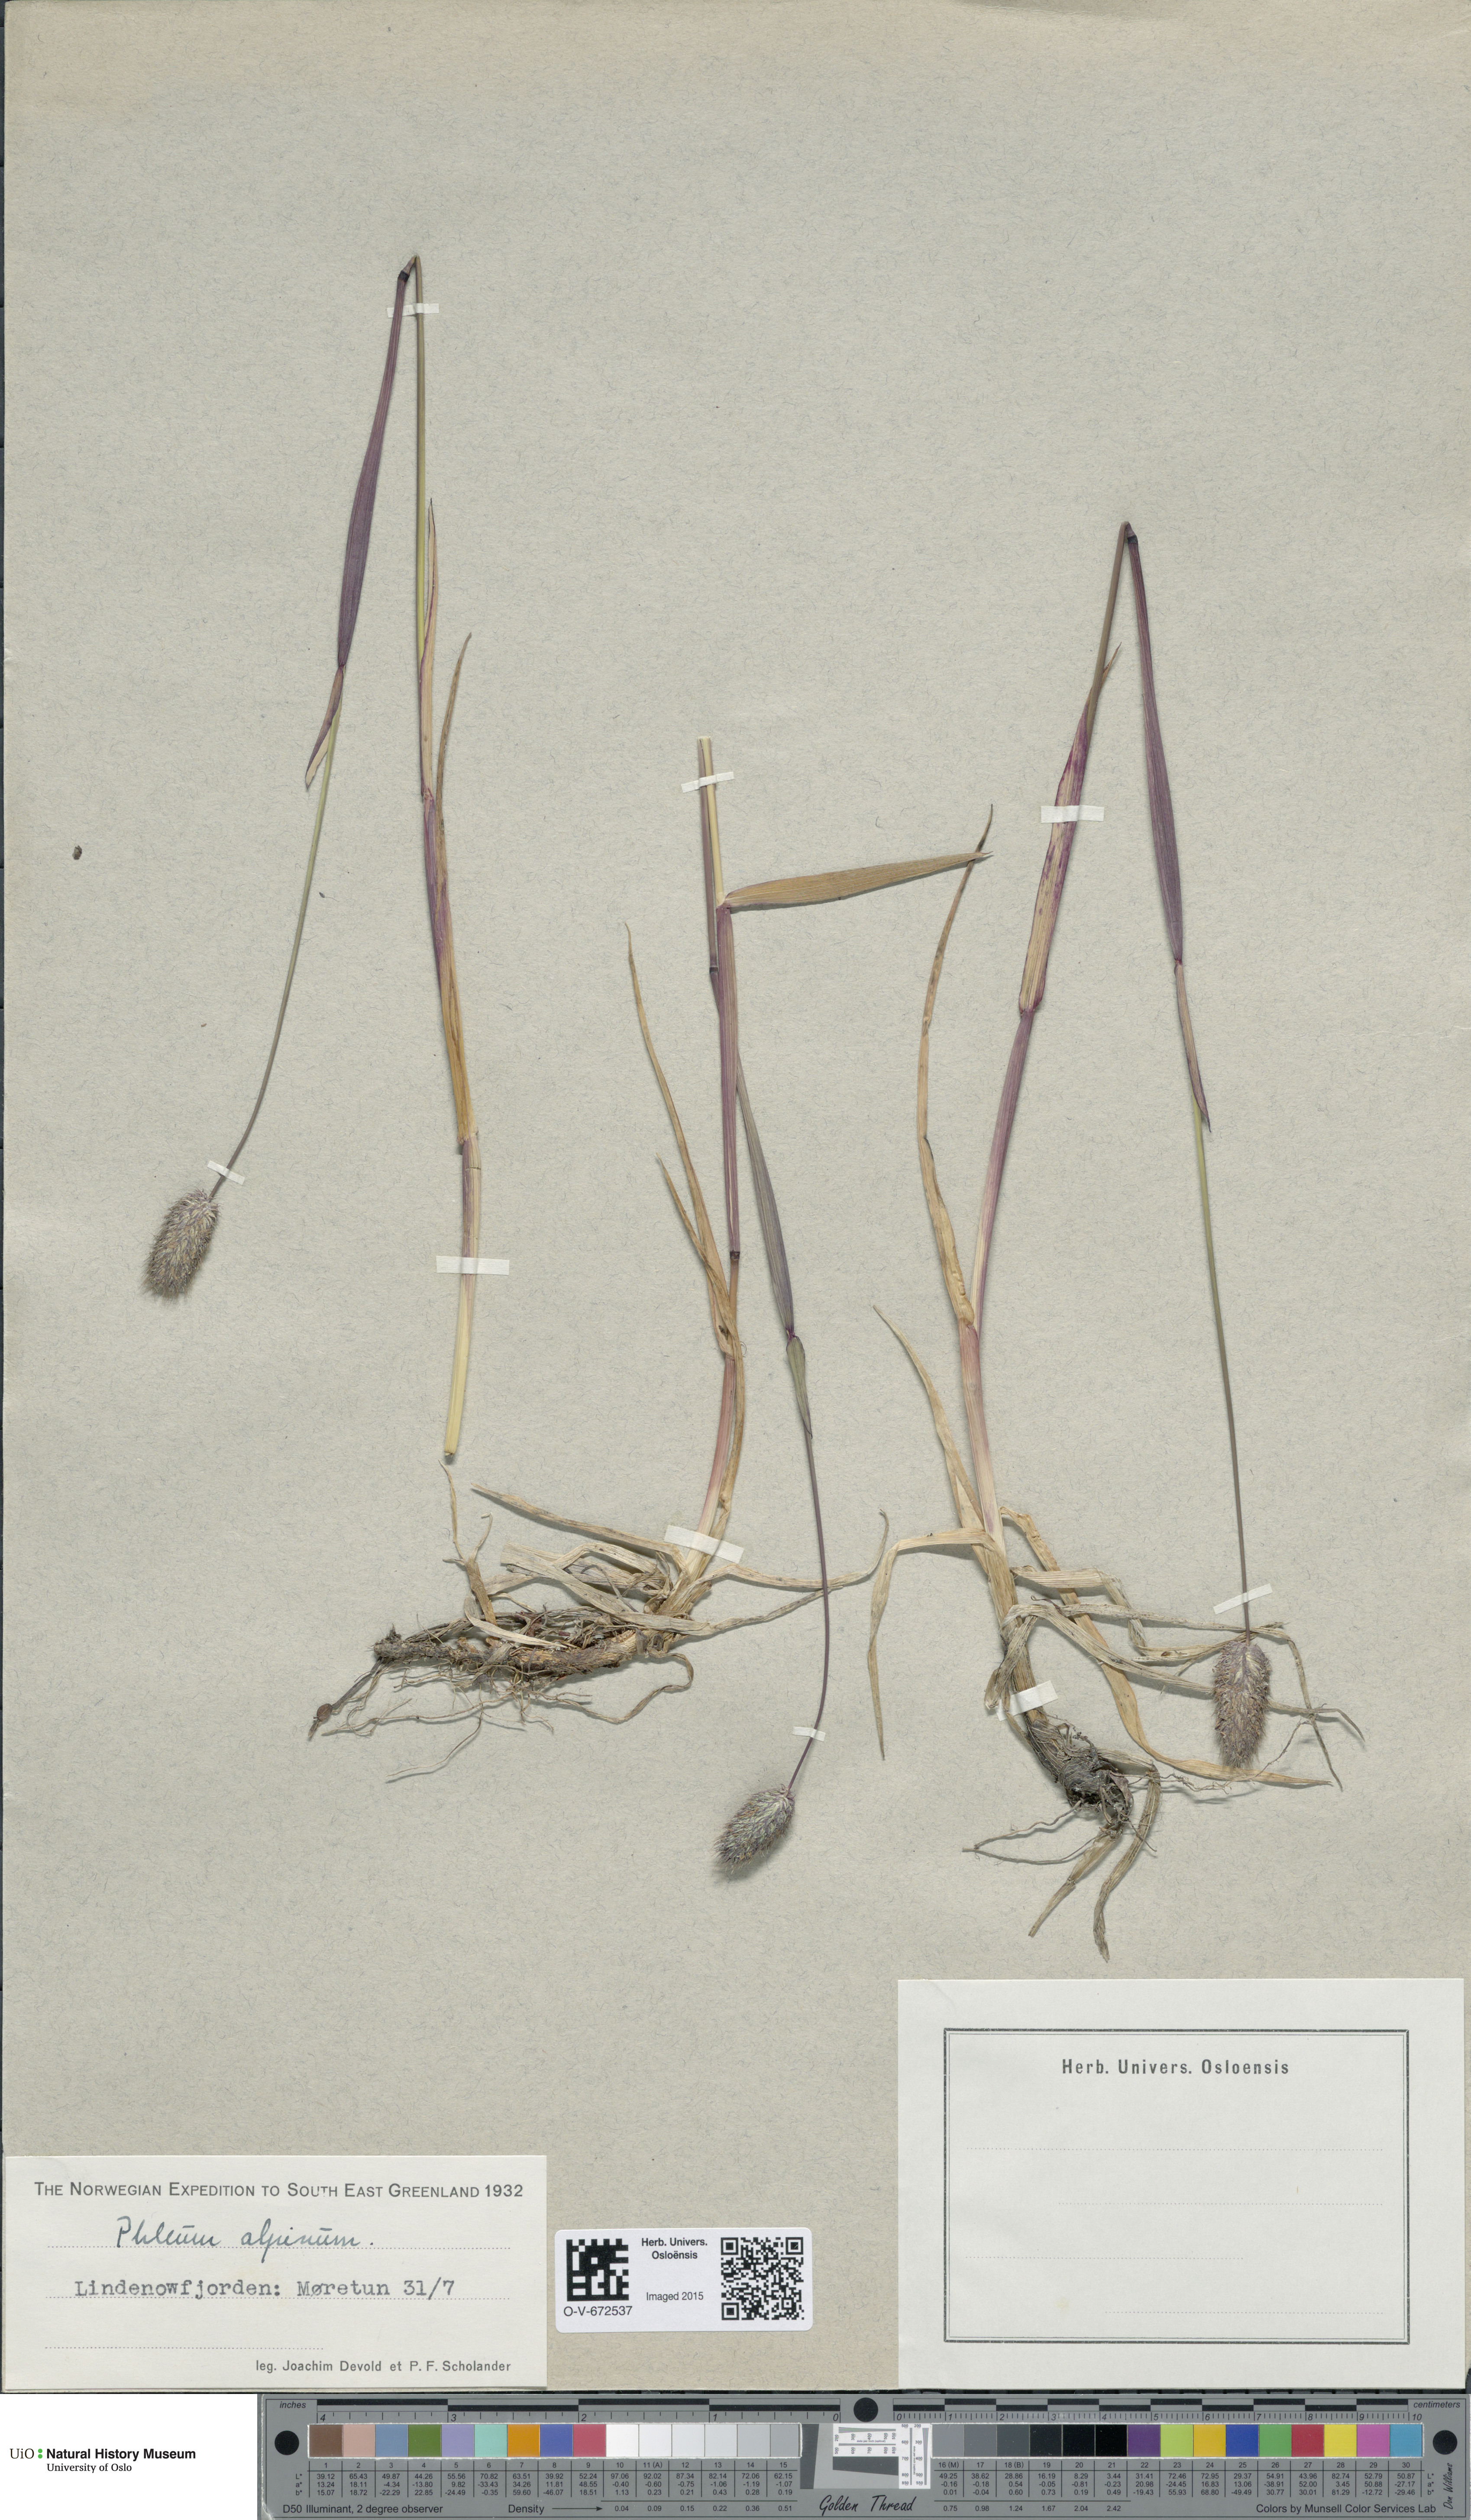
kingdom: Plantae
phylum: Tracheophyta
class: Liliopsida
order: Poales
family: Poaceae
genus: Phleum
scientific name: Phleum alpinum
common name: Alpine cat's-tail
